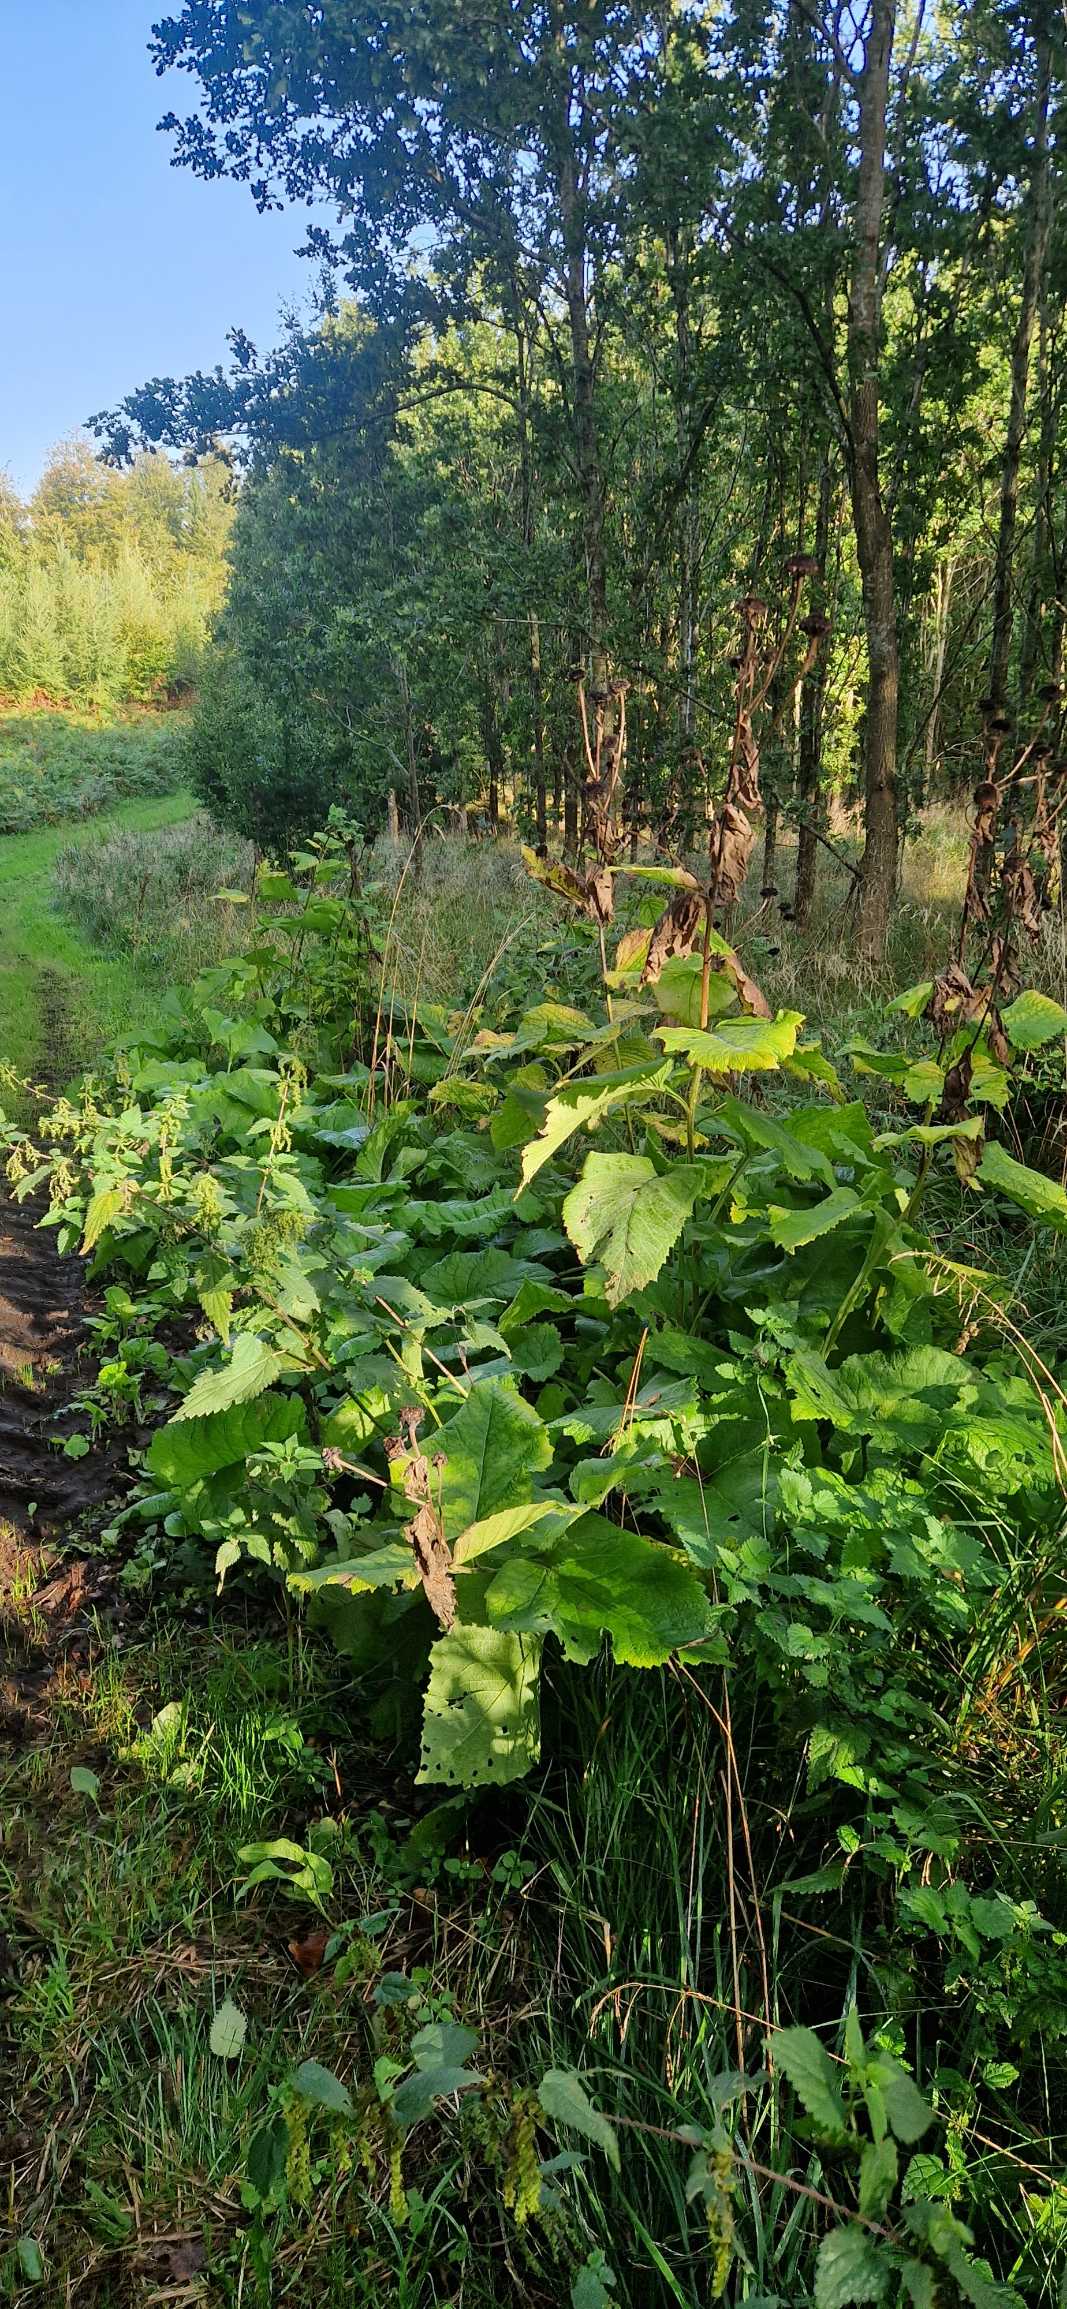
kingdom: Plantae
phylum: Tracheophyta
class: Magnoliopsida
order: Asterales
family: Asteraceae
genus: Telekia
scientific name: Telekia speciosa
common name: Tusindstråle
